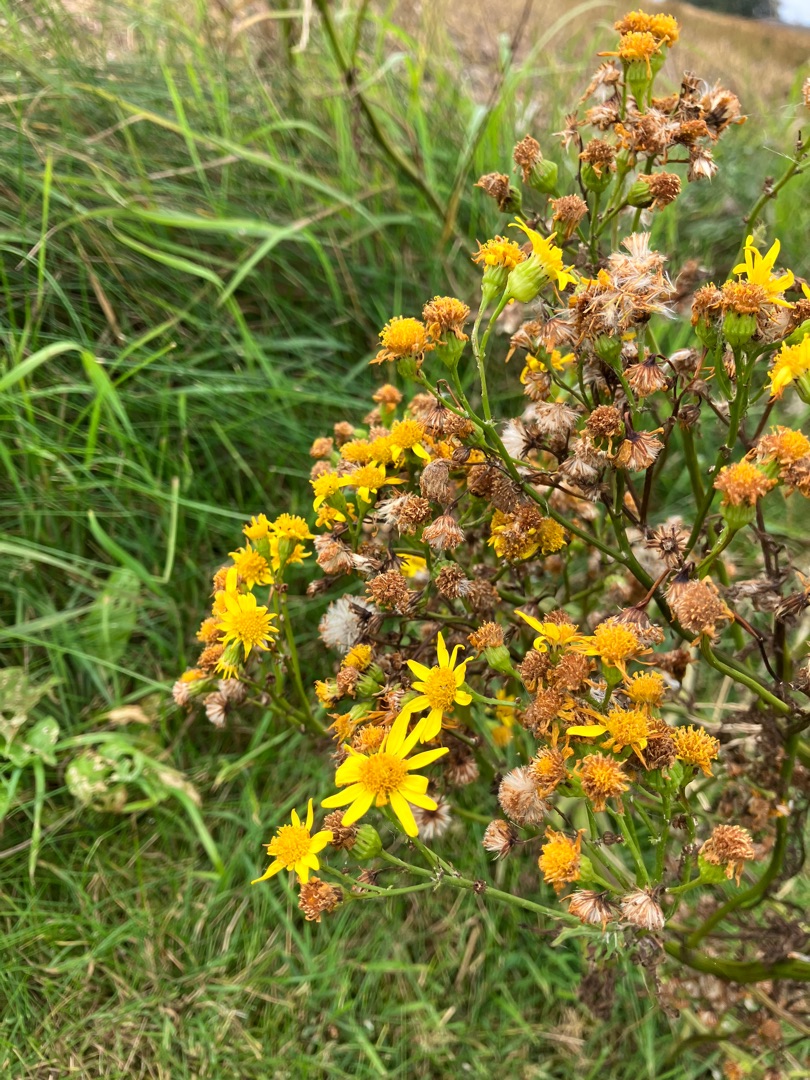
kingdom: Plantae
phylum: Tracheophyta
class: Magnoliopsida
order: Asterales
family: Asteraceae
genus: Jacobaea
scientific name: Jacobaea vulgaris
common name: Eng-brandbæger
